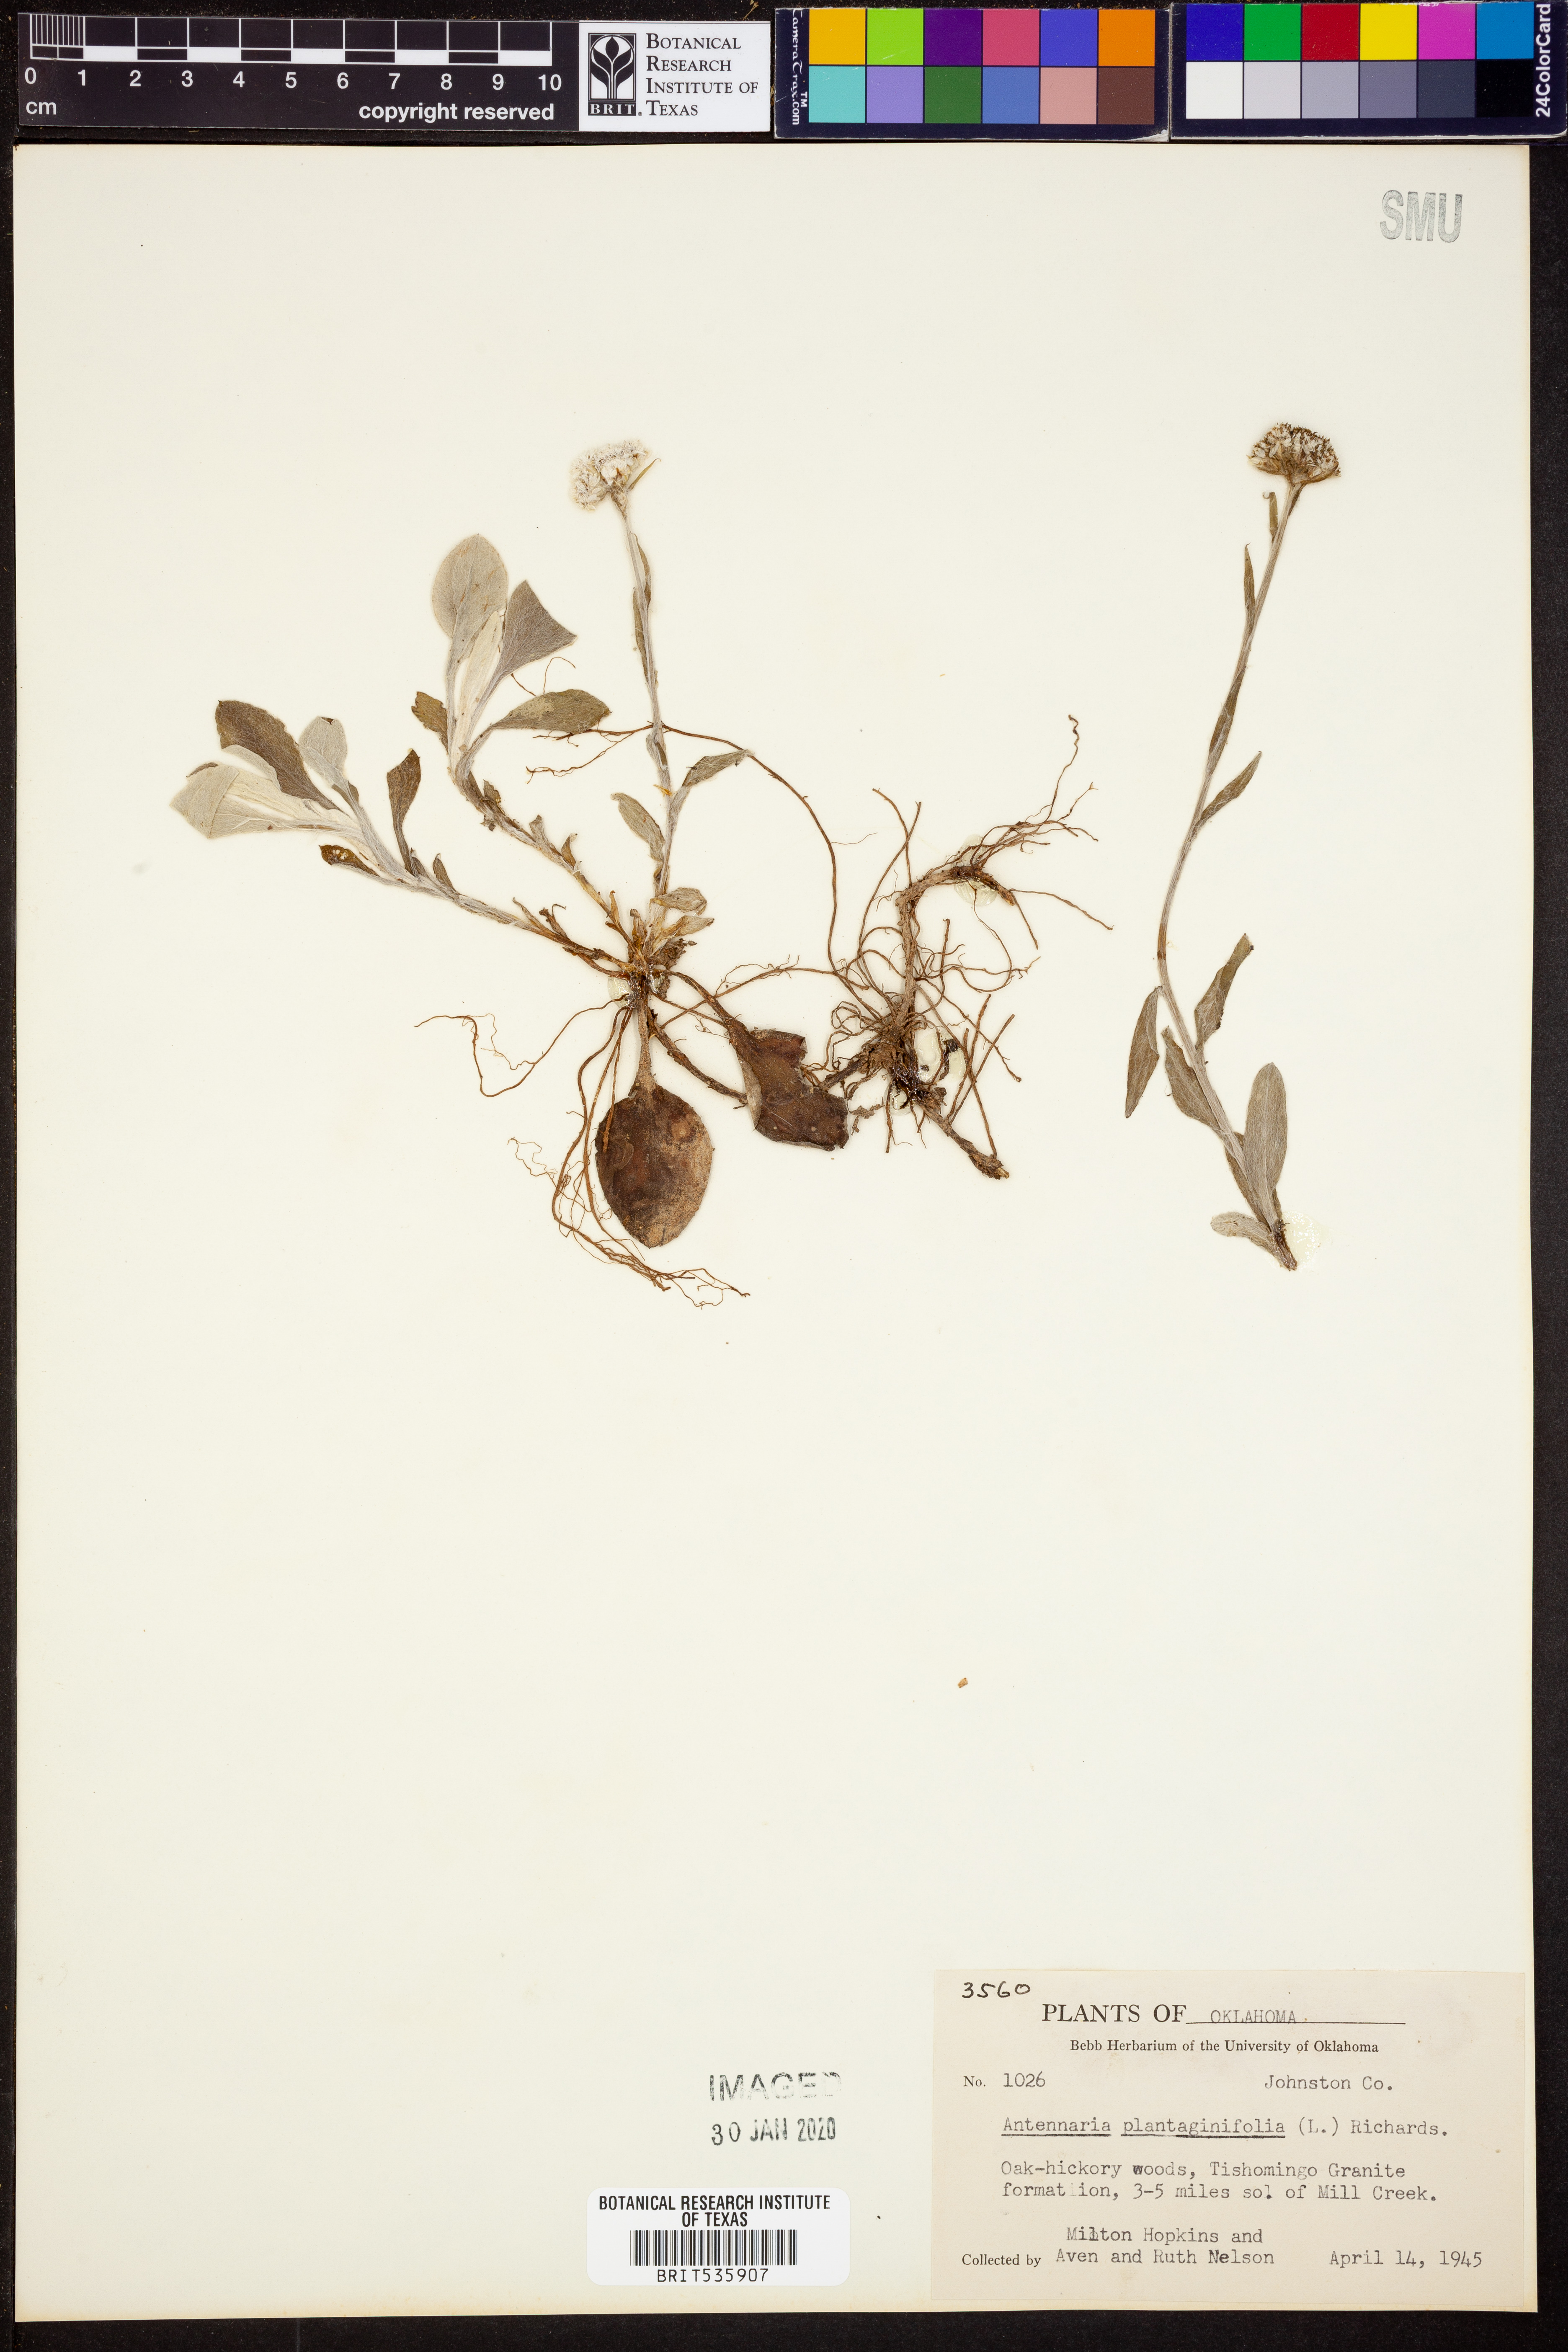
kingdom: Plantae
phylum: Tracheophyta
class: Magnoliopsida
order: Asterales
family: Asteraceae
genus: Antennaria
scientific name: Antennaria plantaginifolia
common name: Plantain-leaved pussytoes
